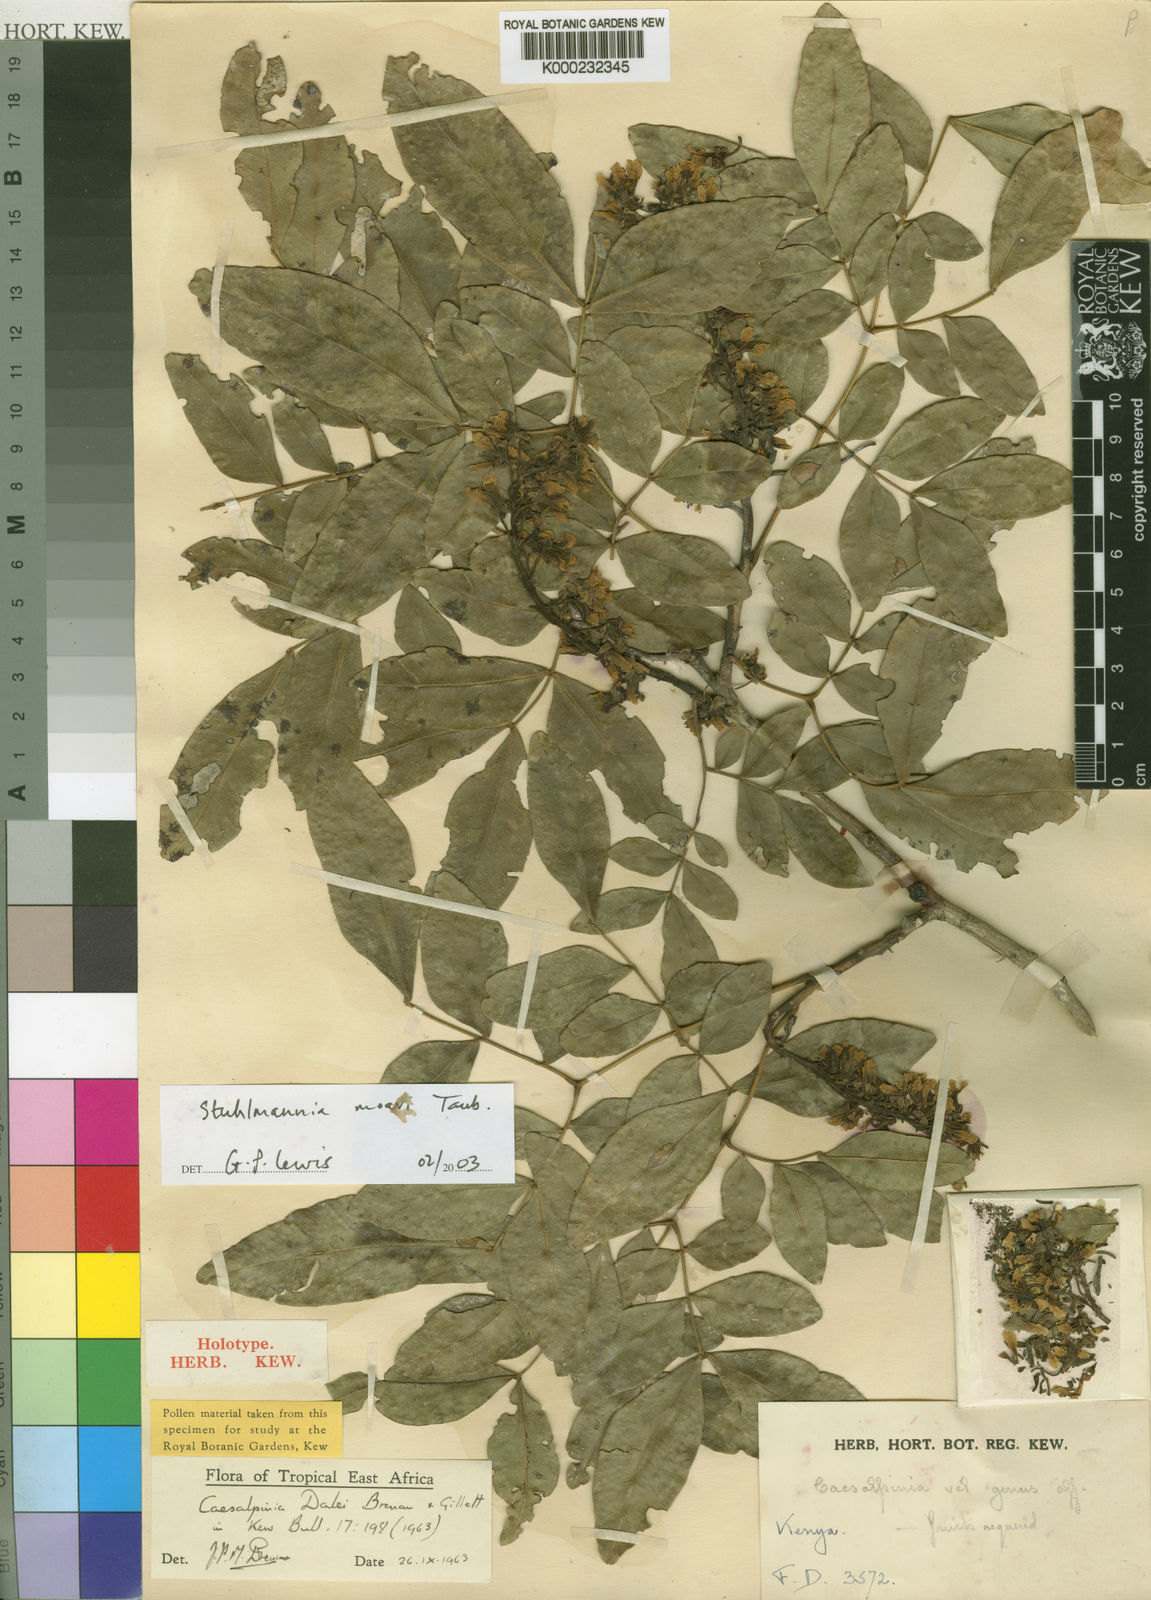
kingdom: Plantae
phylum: Tracheophyta
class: Magnoliopsida
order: Fabales
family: Fabaceae
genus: Stuhlmannia
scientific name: Stuhlmannia moavi
